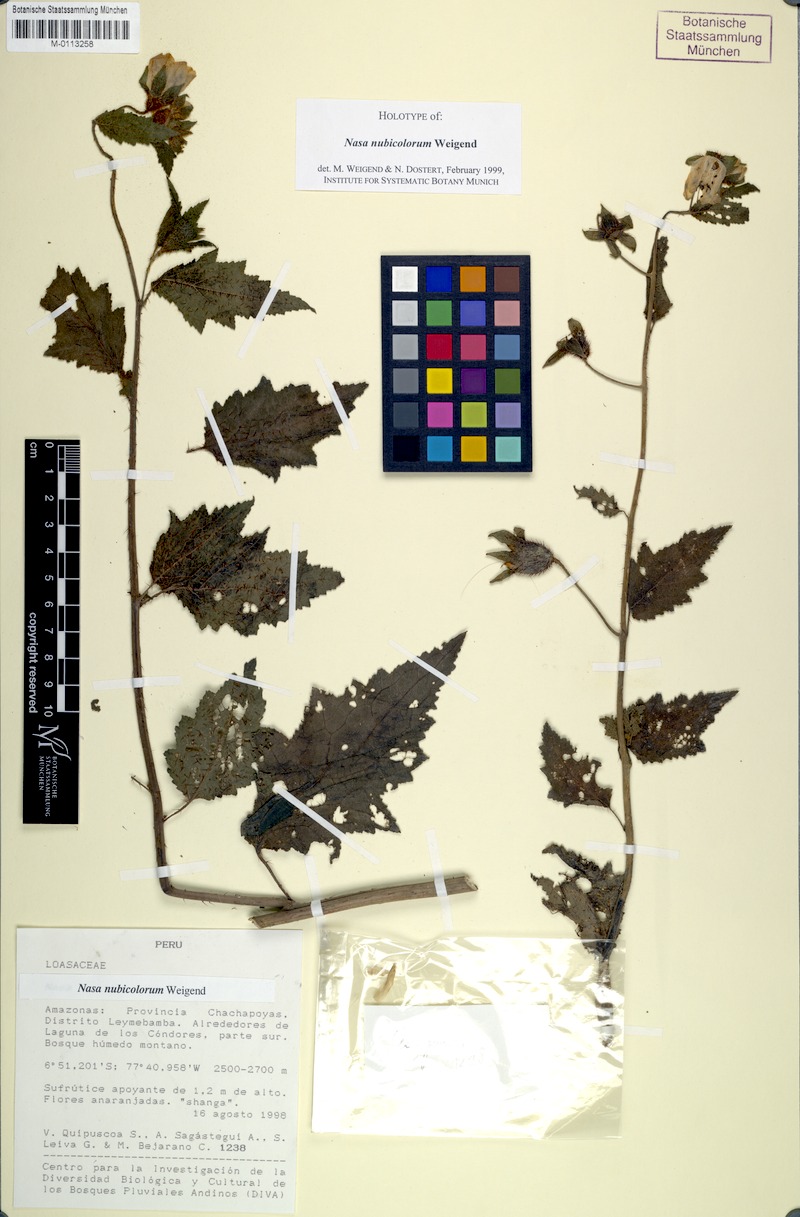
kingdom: Plantae
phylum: Tracheophyta
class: Magnoliopsida
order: Cornales
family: Loasaceae
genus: Nasa
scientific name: Nasa nubicolorum
